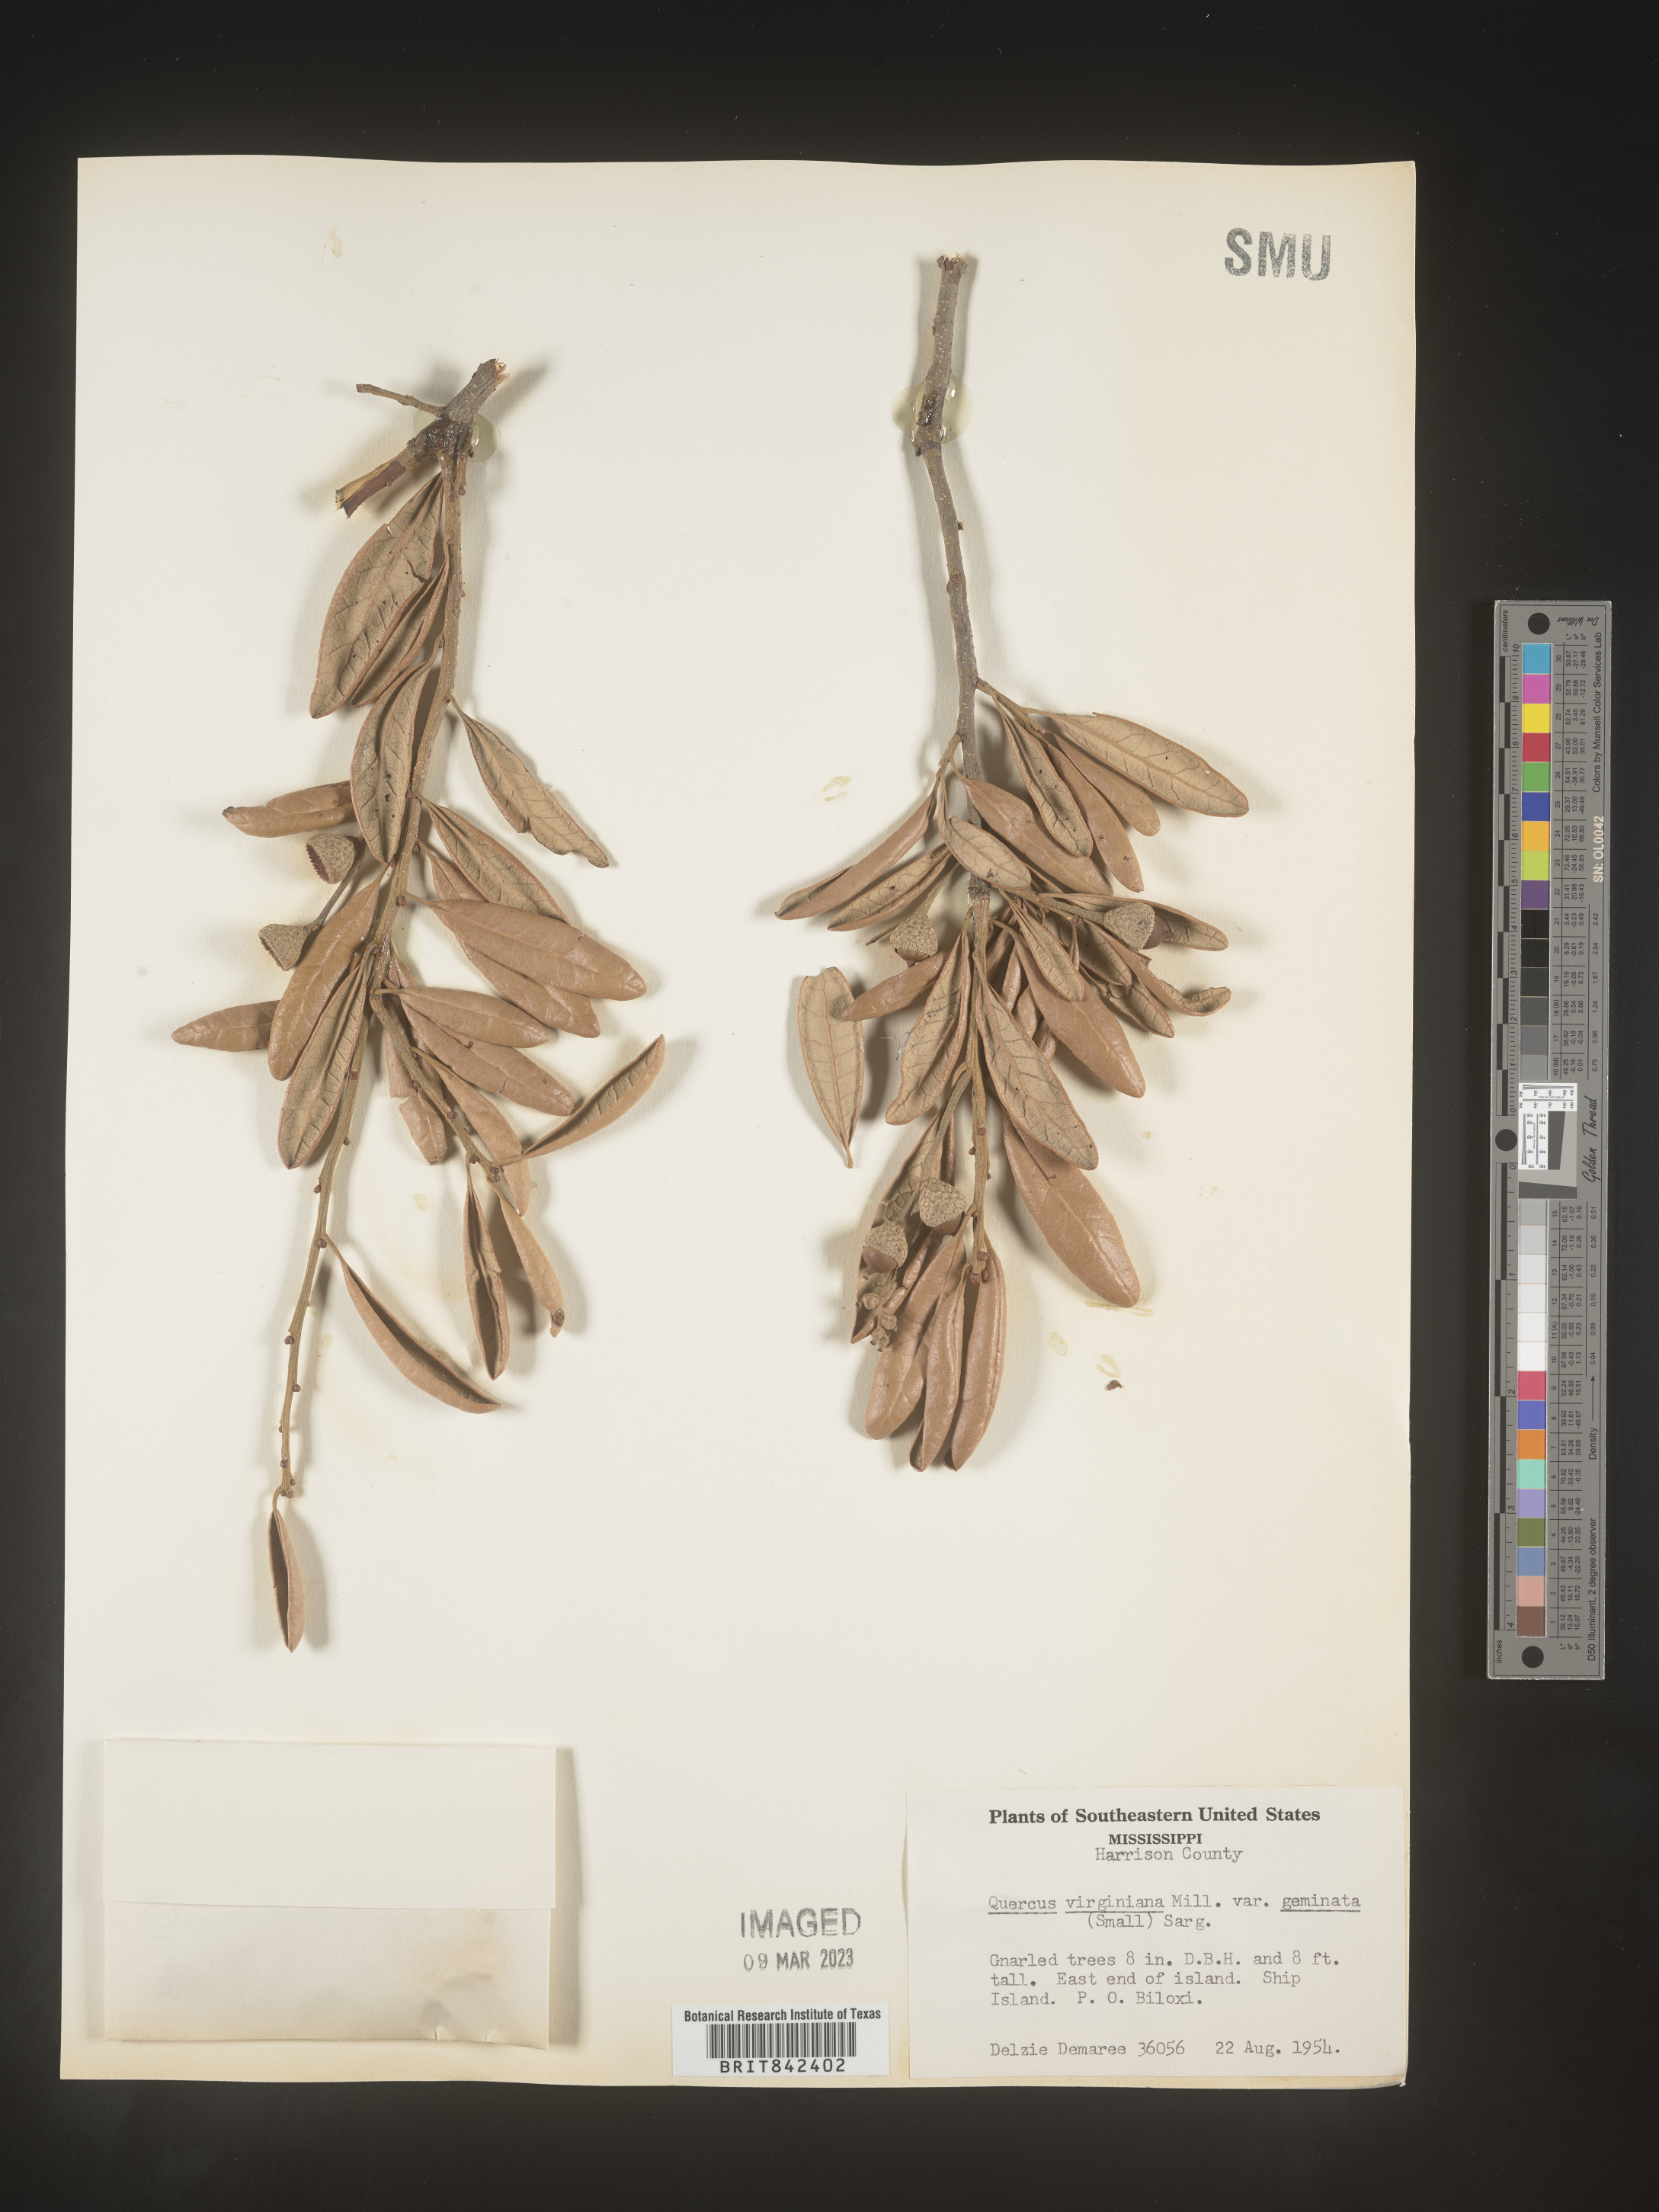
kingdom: Plantae
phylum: Tracheophyta
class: Magnoliopsida
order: Fagales
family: Fagaceae
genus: Quercus
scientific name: Quercus virginiana
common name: Southern live oak
